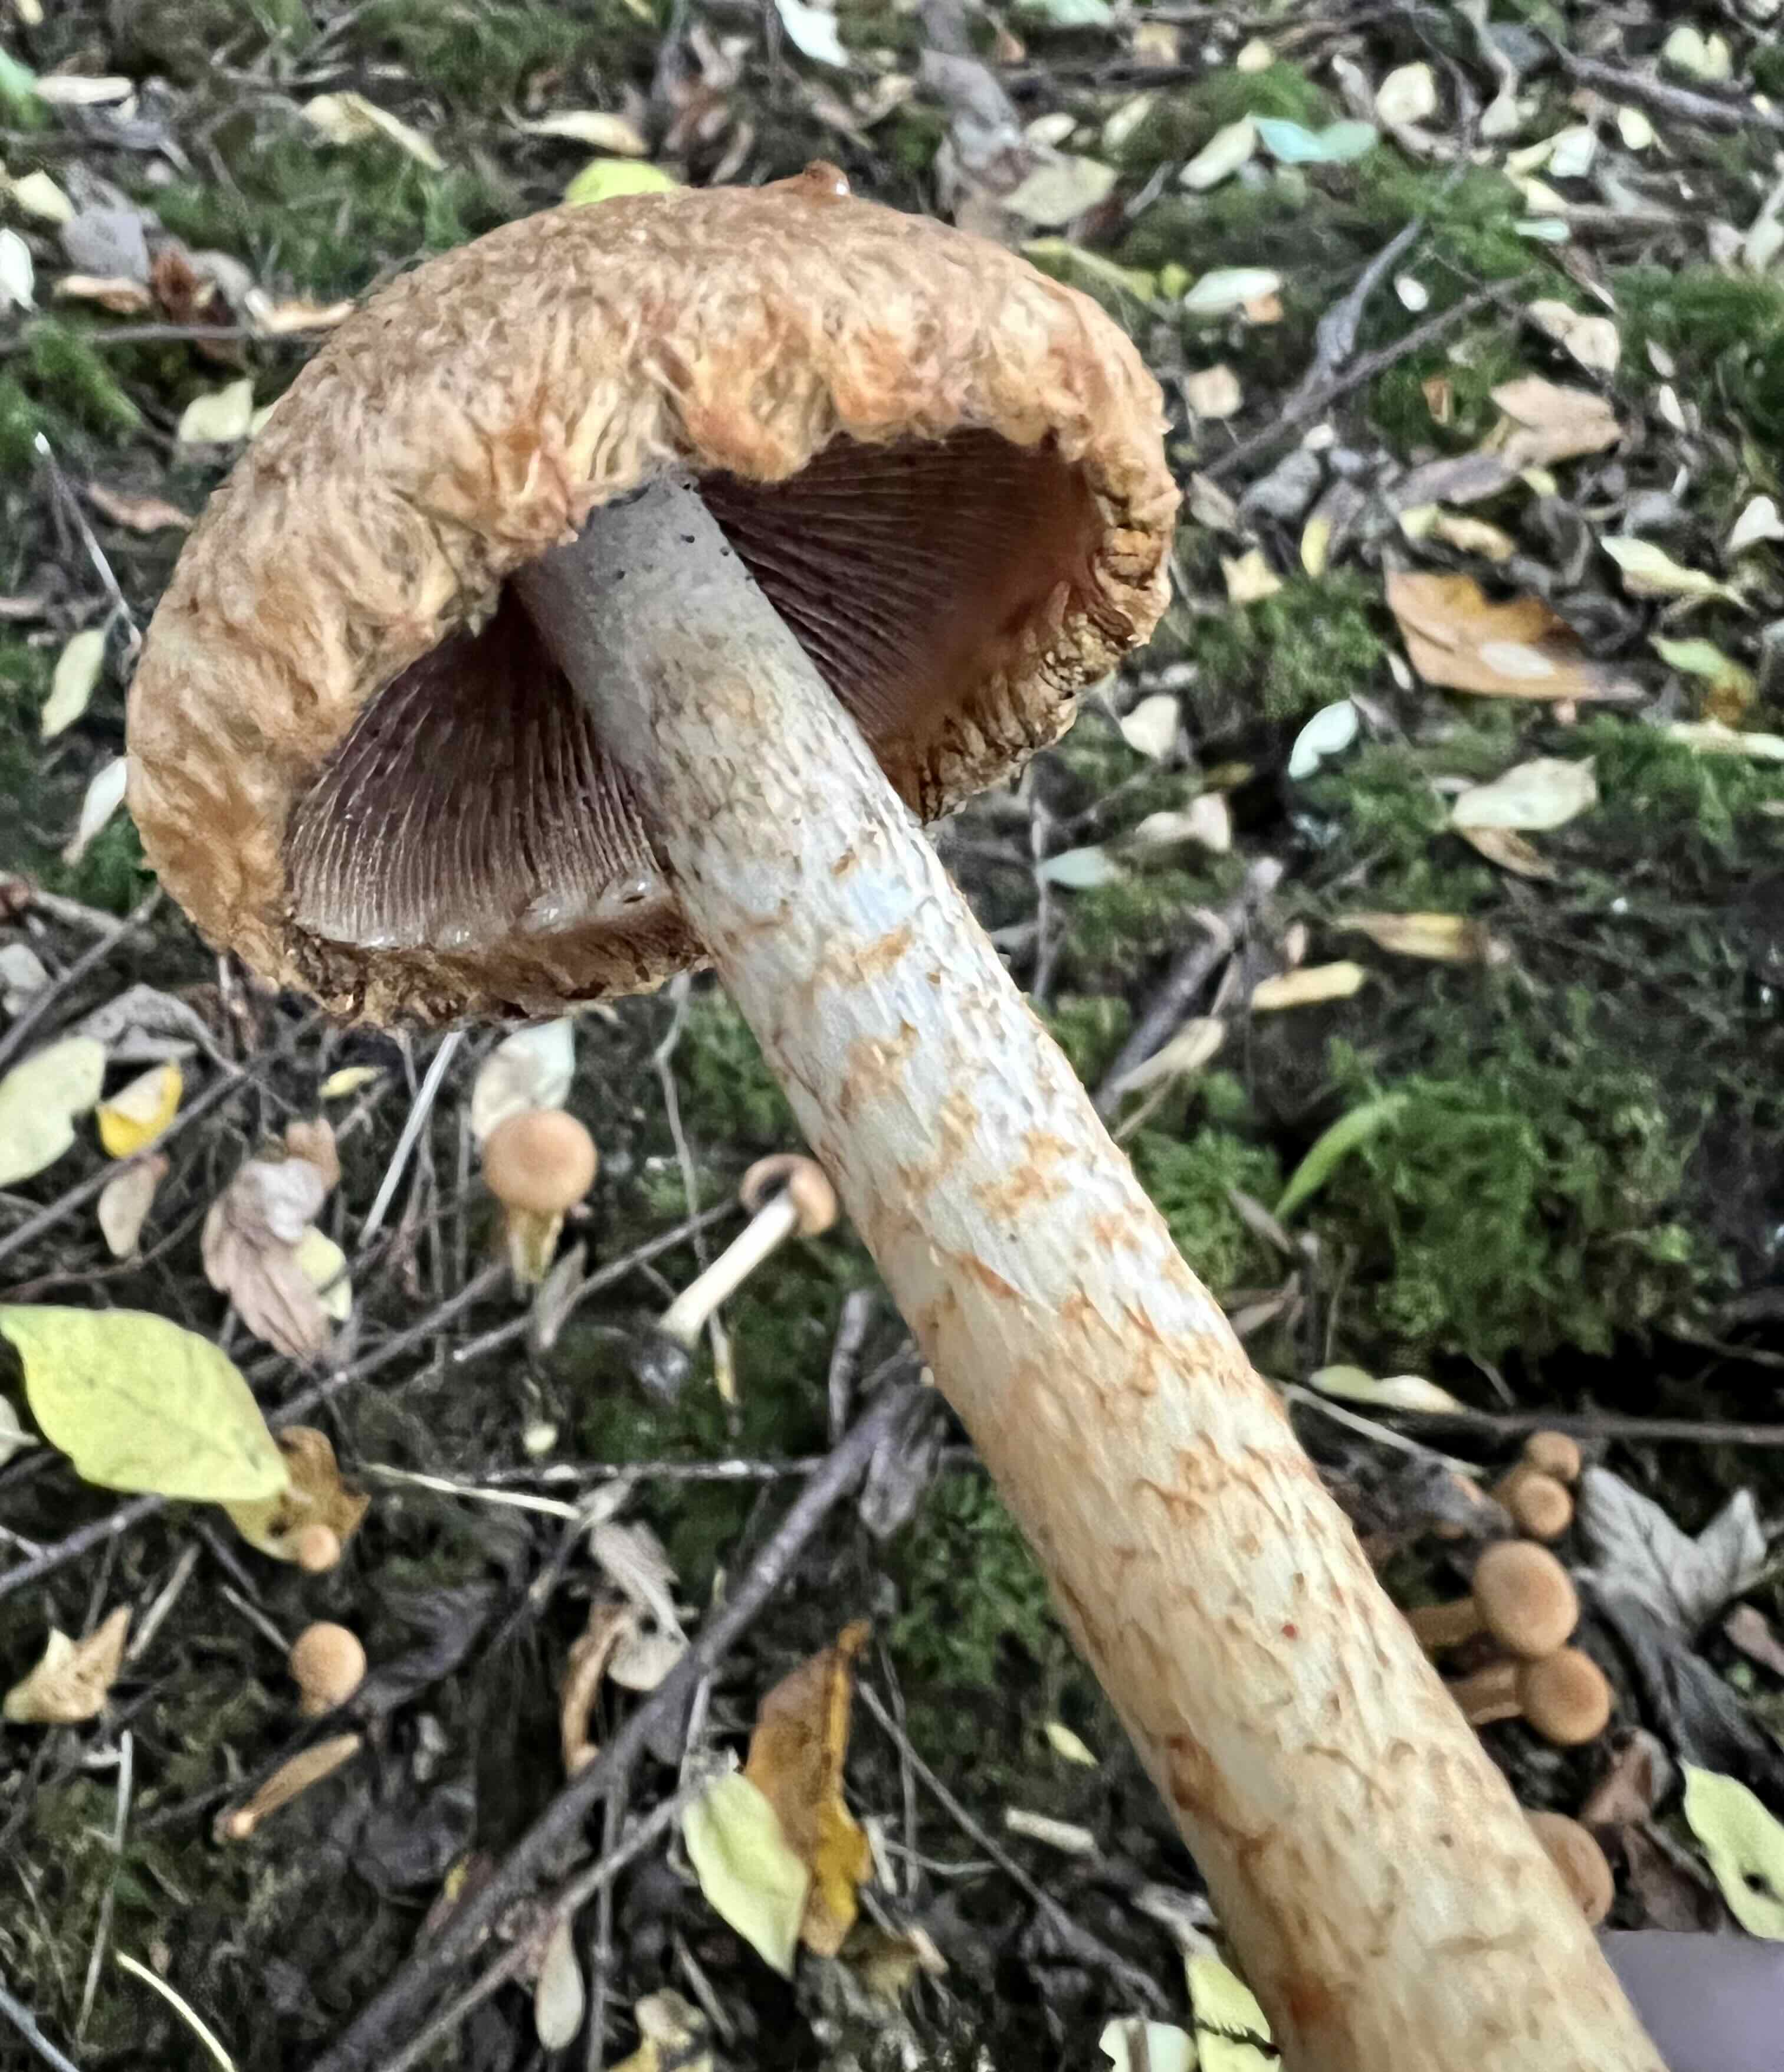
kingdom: Fungi
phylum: Basidiomycota
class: Agaricomycetes
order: Agaricales
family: Psathyrellaceae
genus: Lacrymaria
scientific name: Lacrymaria pyrotricha
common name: ildhåret mørkhat
